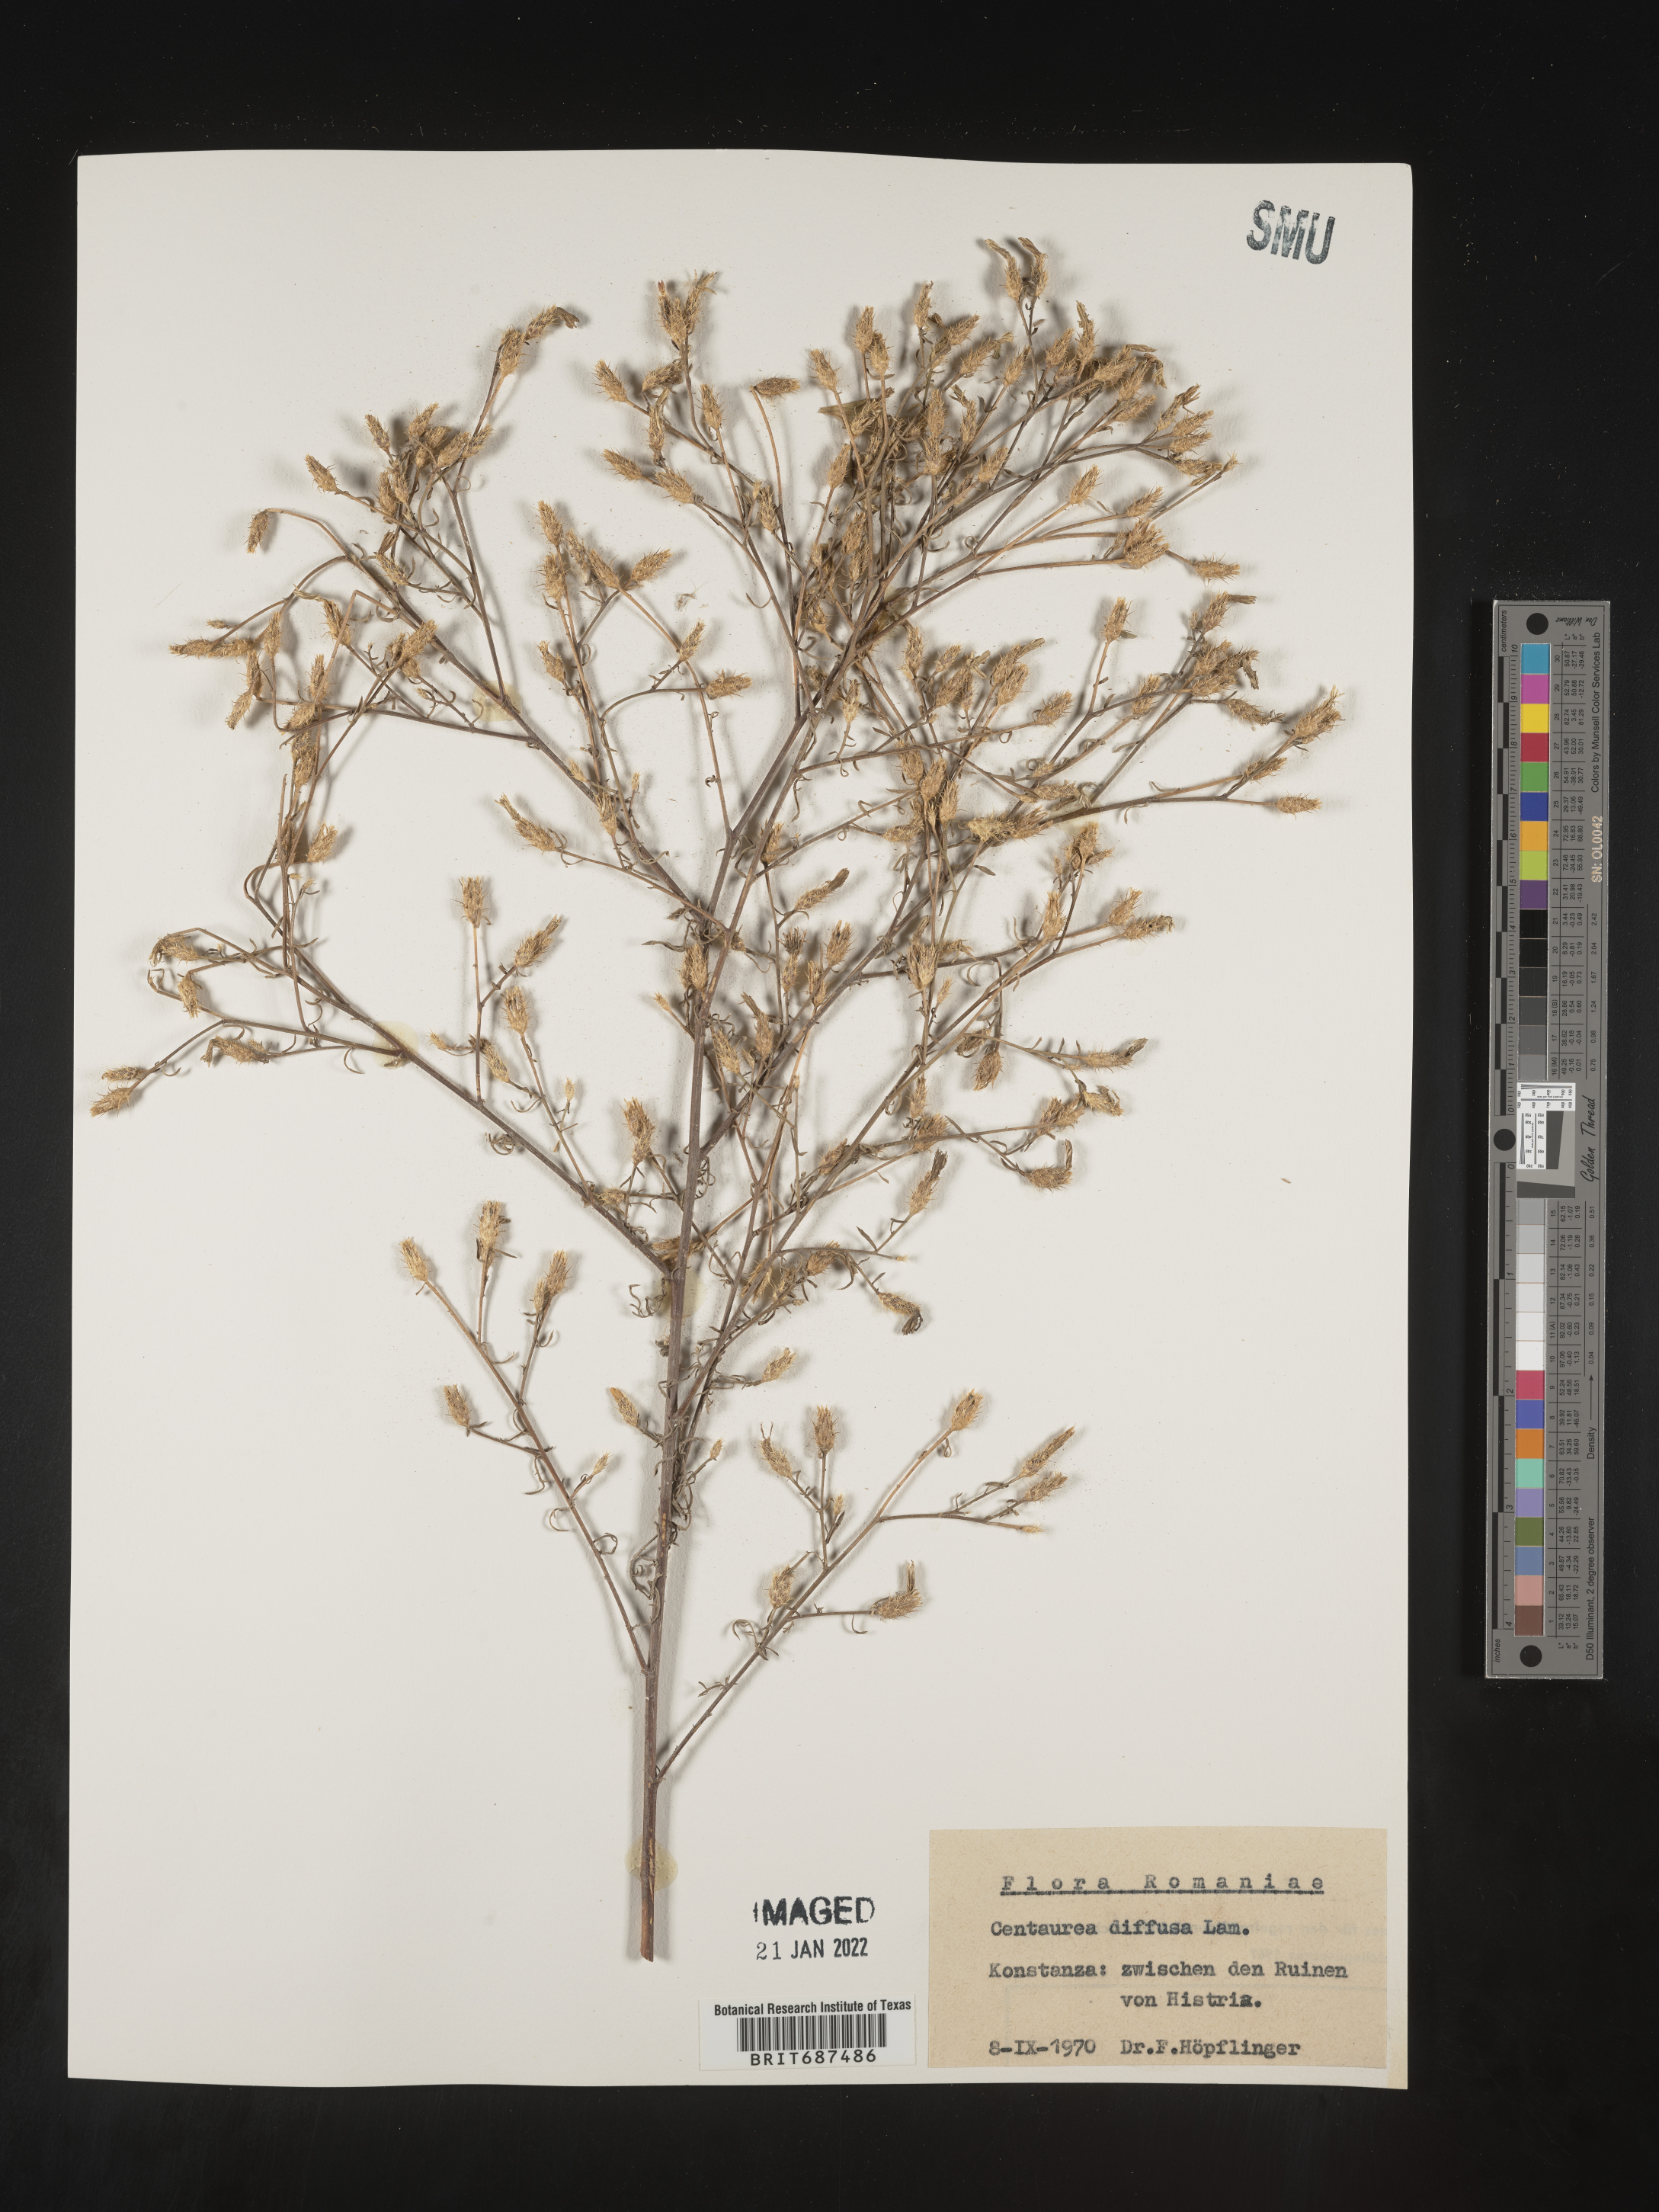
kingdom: Plantae
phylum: Tracheophyta
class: Magnoliopsida
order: Asterales
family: Asteraceae
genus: Centaurea
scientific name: Centaurea
